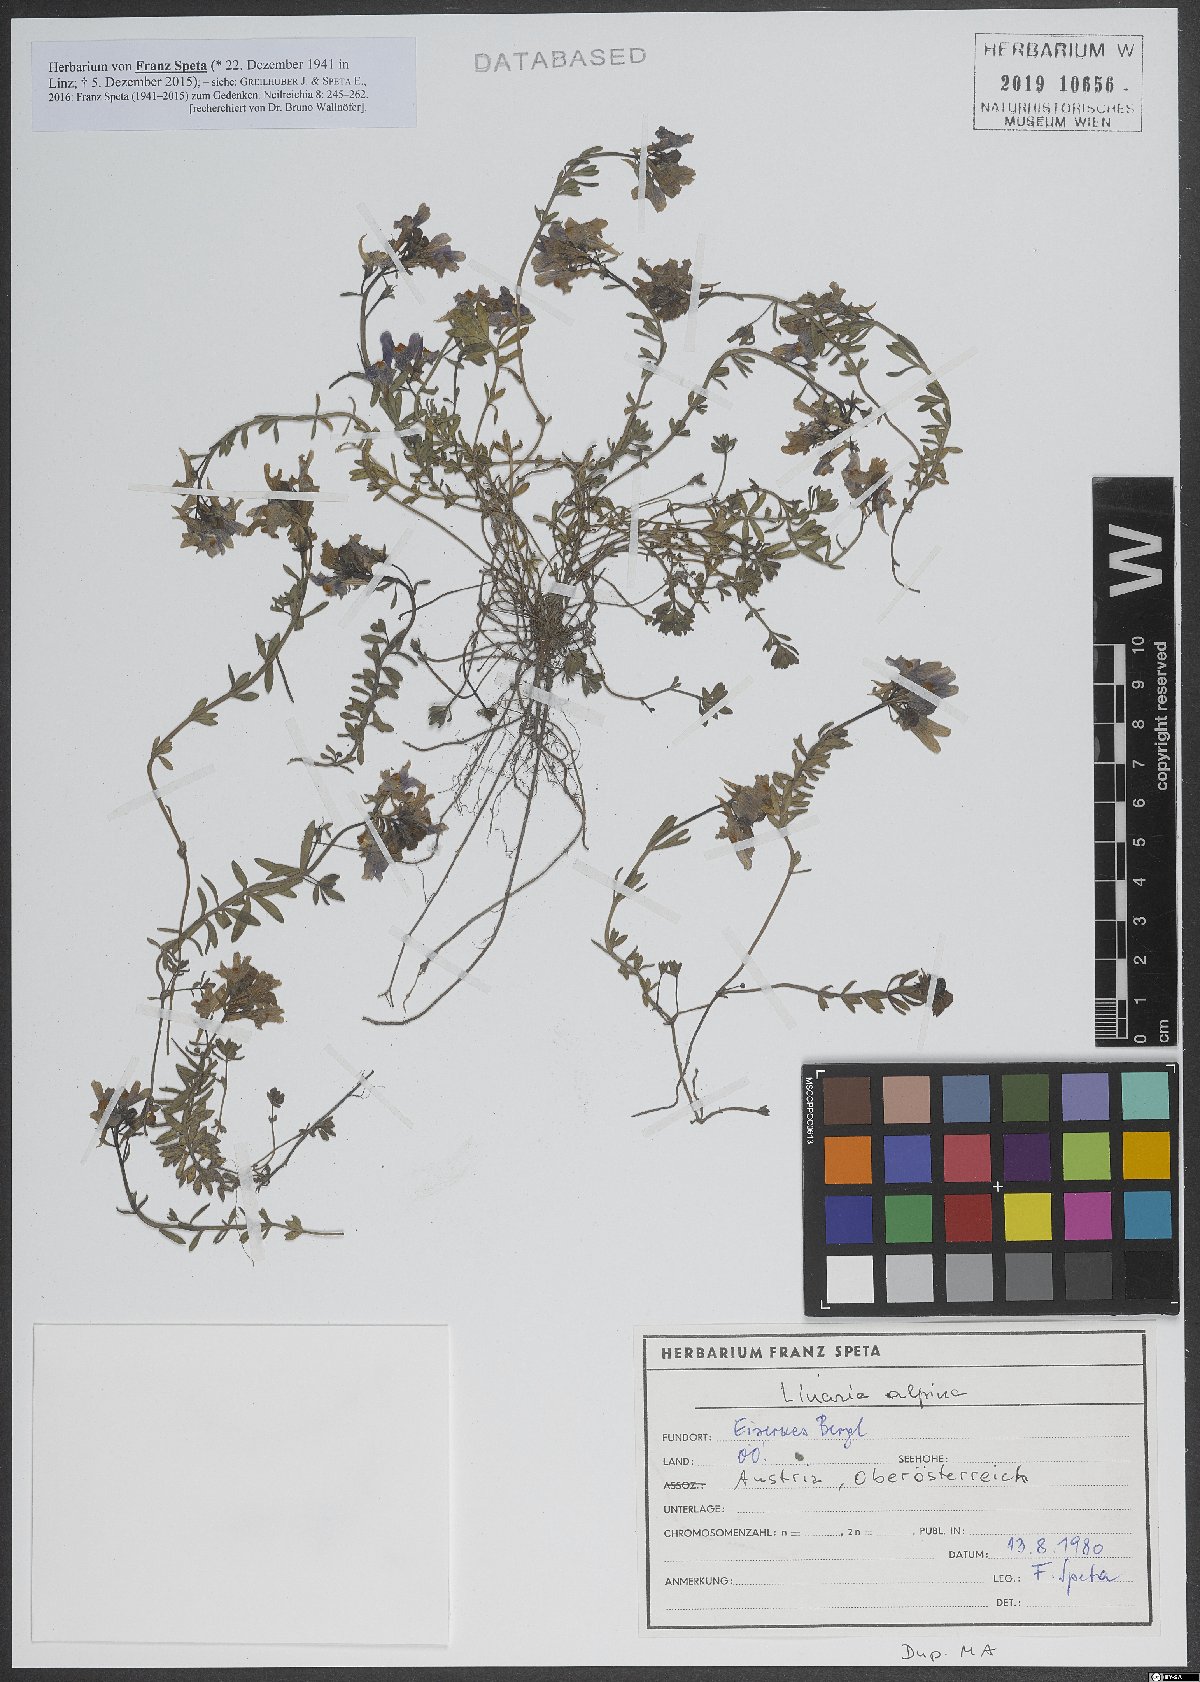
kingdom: Plantae
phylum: Tracheophyta
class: Magnoliopsida
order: Lamiales
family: Plantaginaceae
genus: Linaria
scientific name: Linaria alpina
